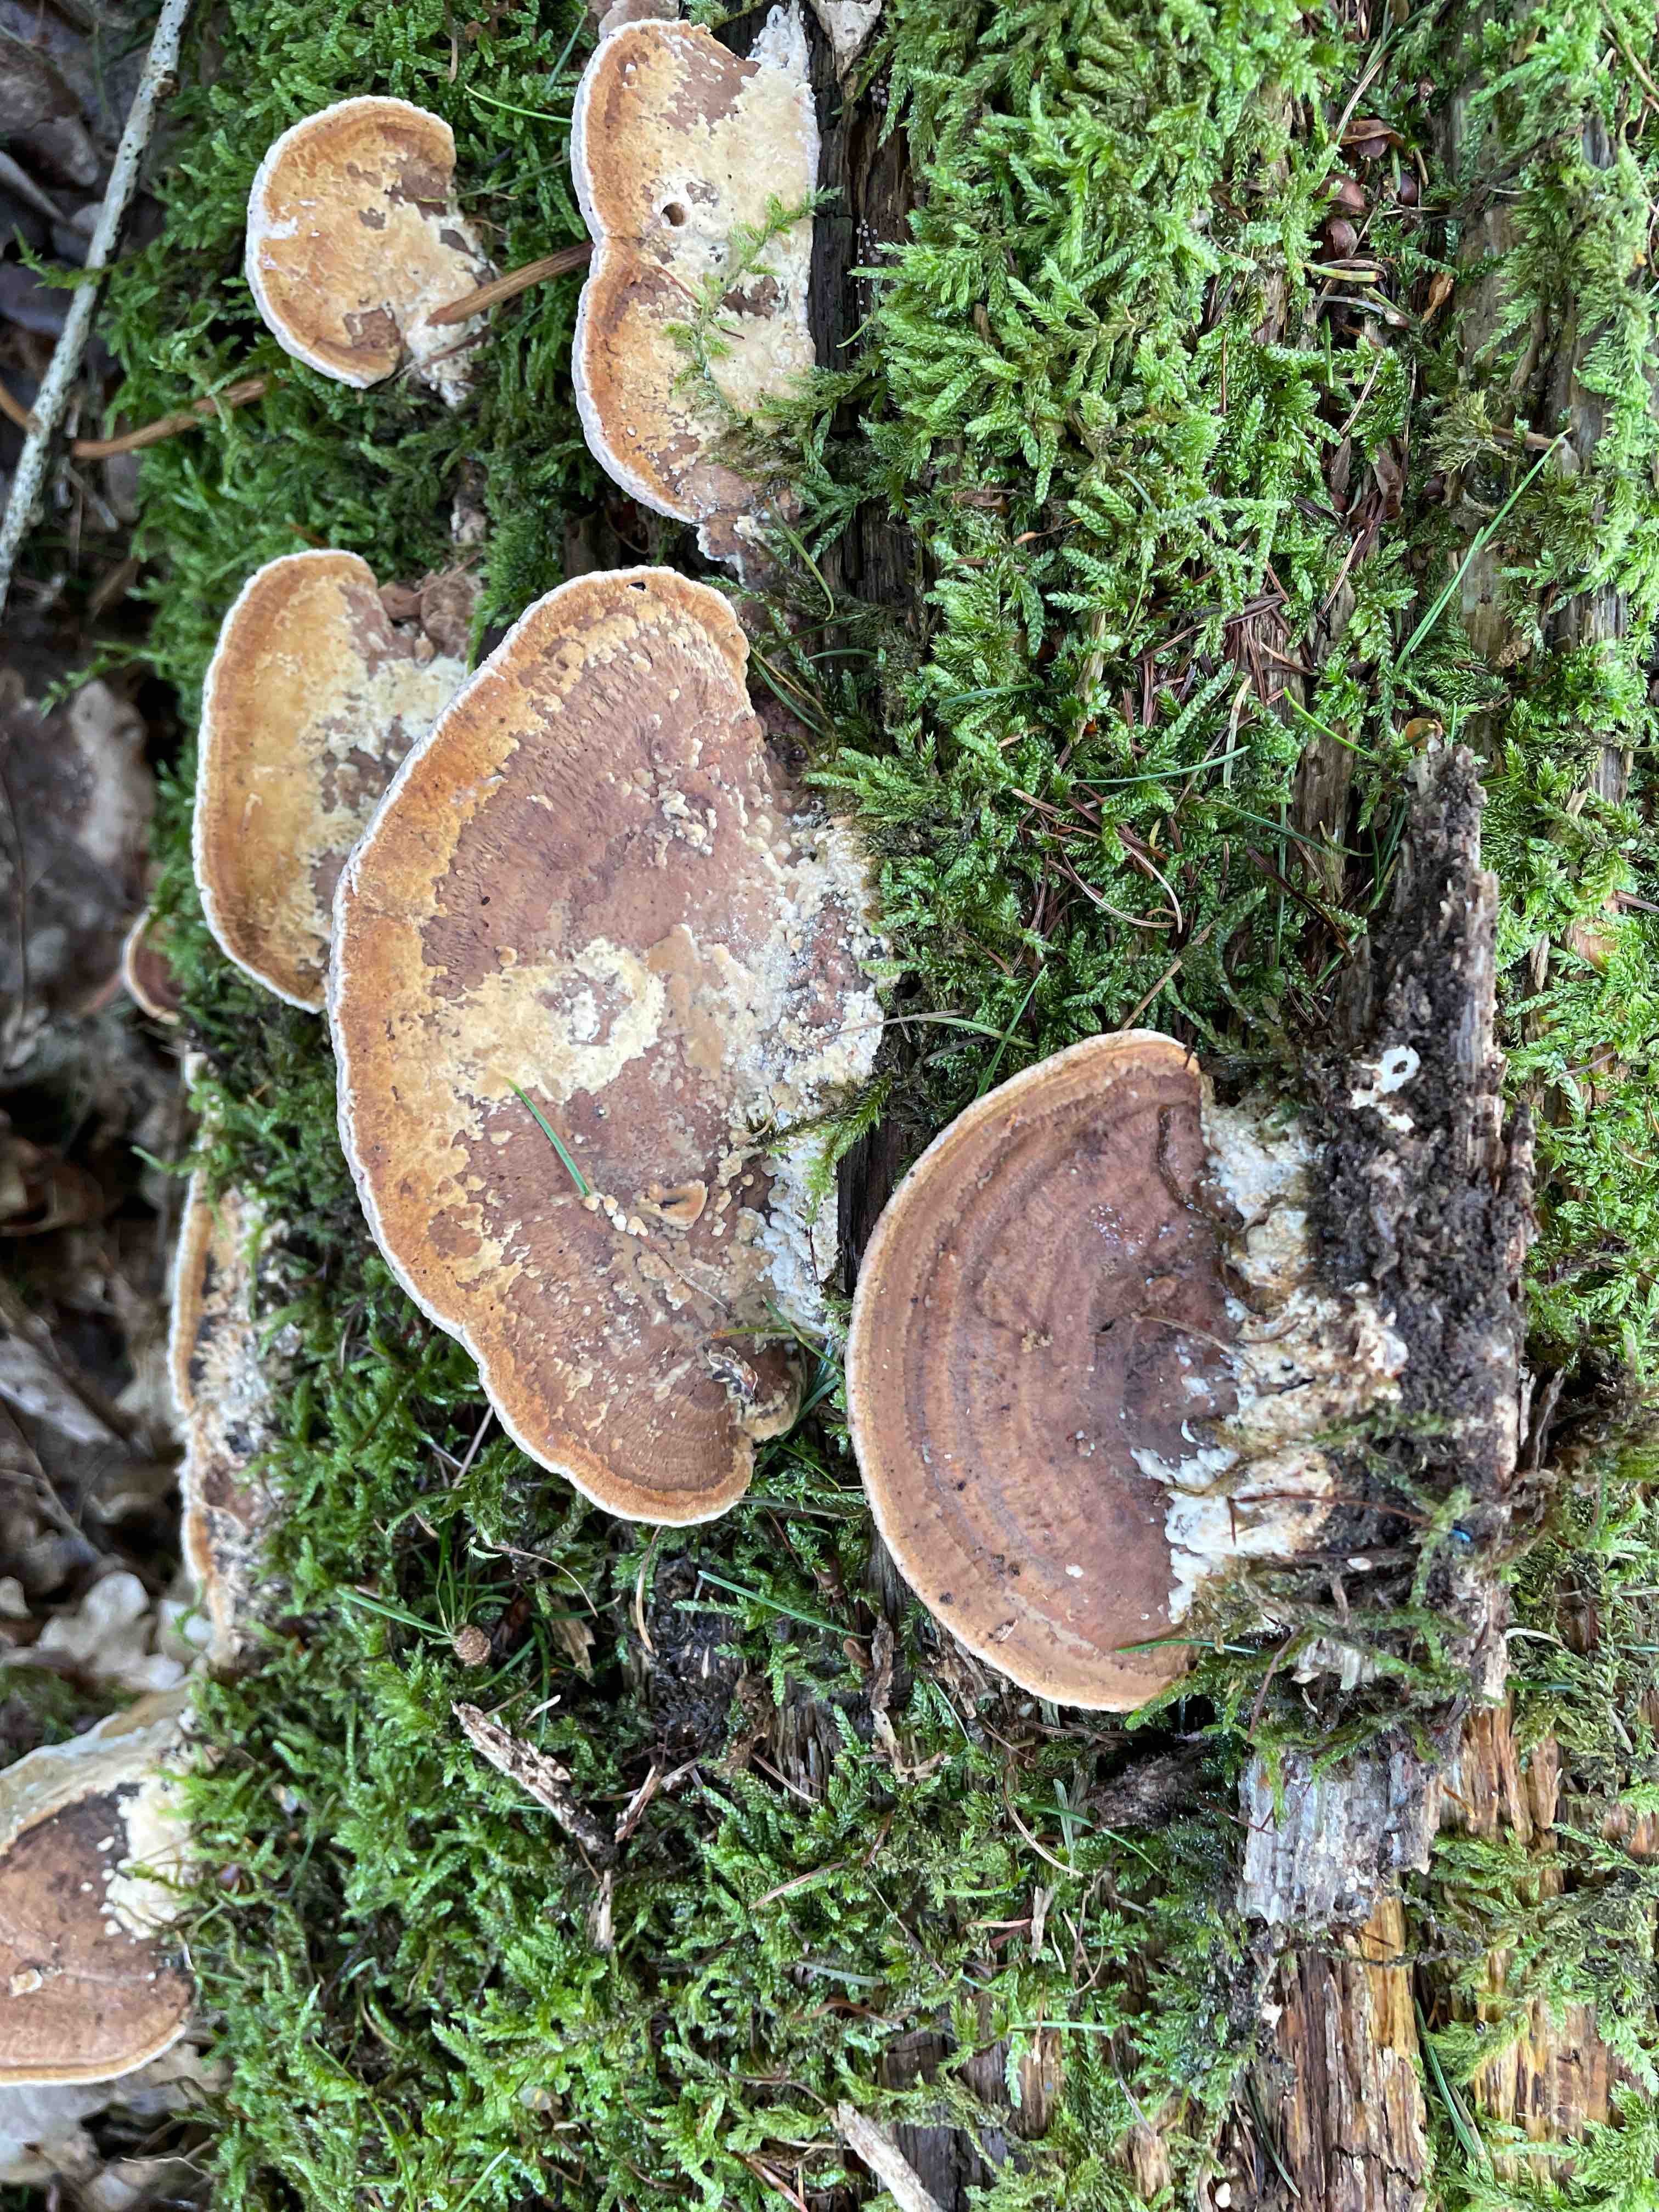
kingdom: Fungi
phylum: Basidiomycota
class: Agaricomycetes
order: Polyporales
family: Fomitopsidaceae
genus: Daedalea
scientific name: Daedalea quercina
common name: ege-labyrintsvamp
